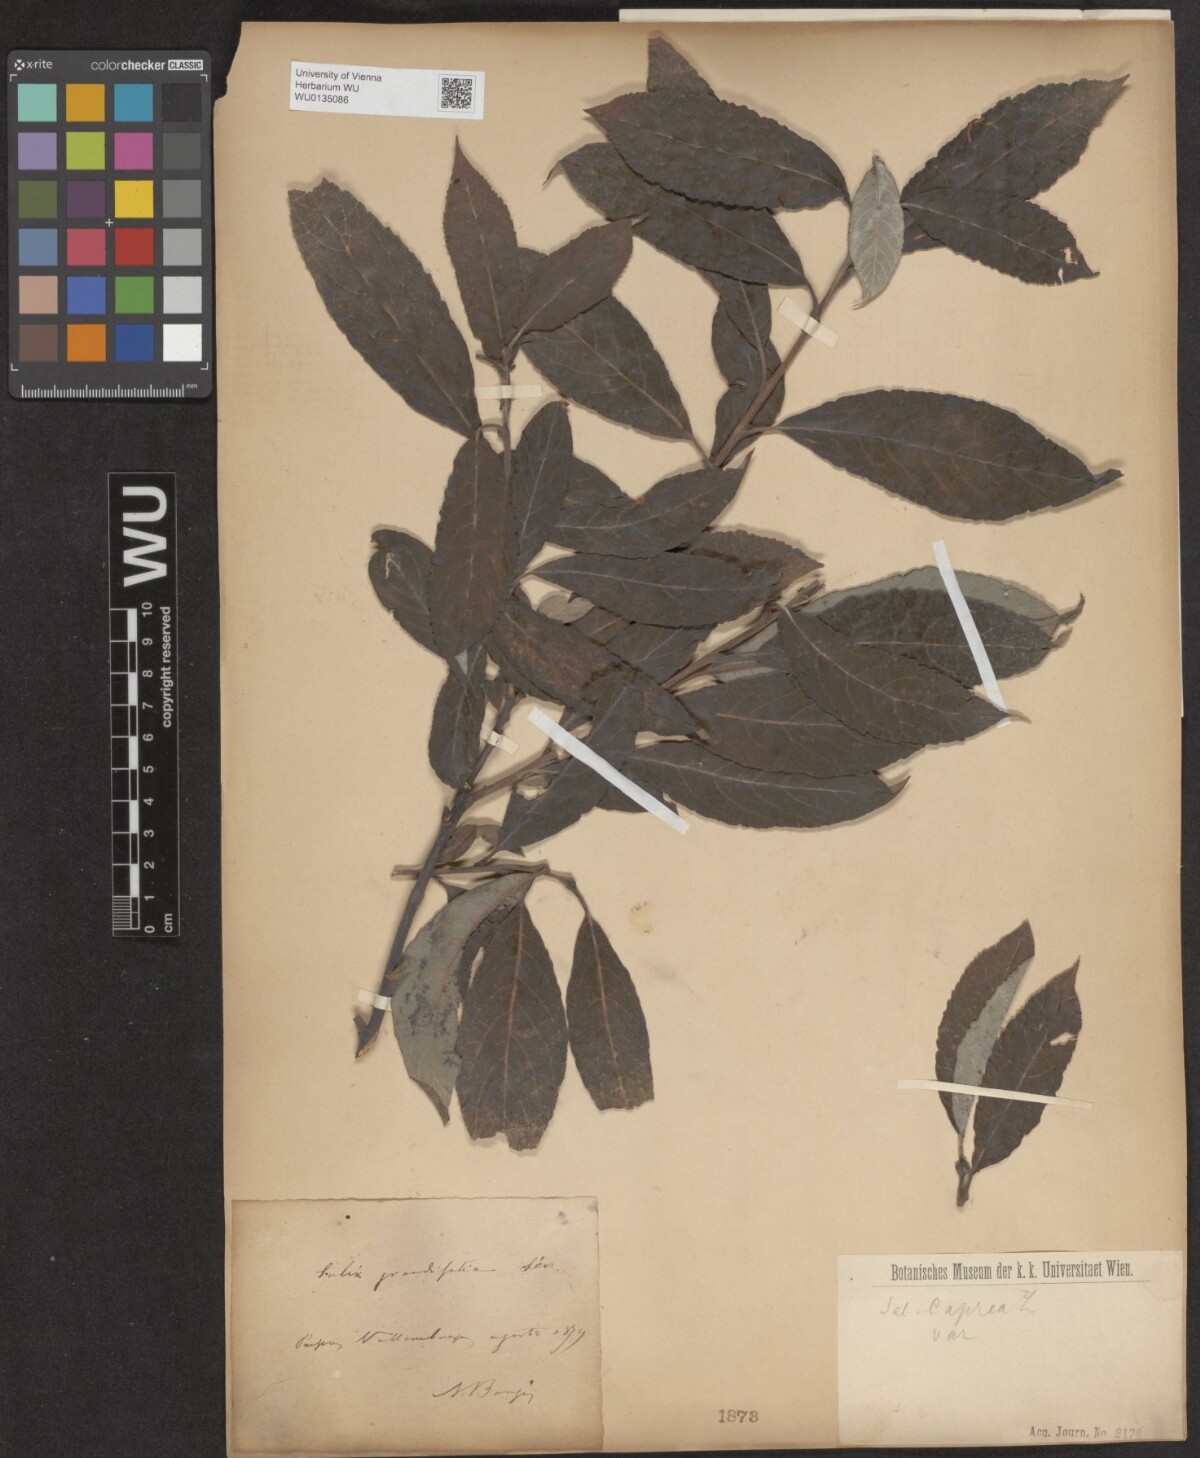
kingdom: Plantae
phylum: Tracheophyta
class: Magnoliopsida
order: Malpighiales
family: Salicaceae
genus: Salix
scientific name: Salix caprea
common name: Goat willow
